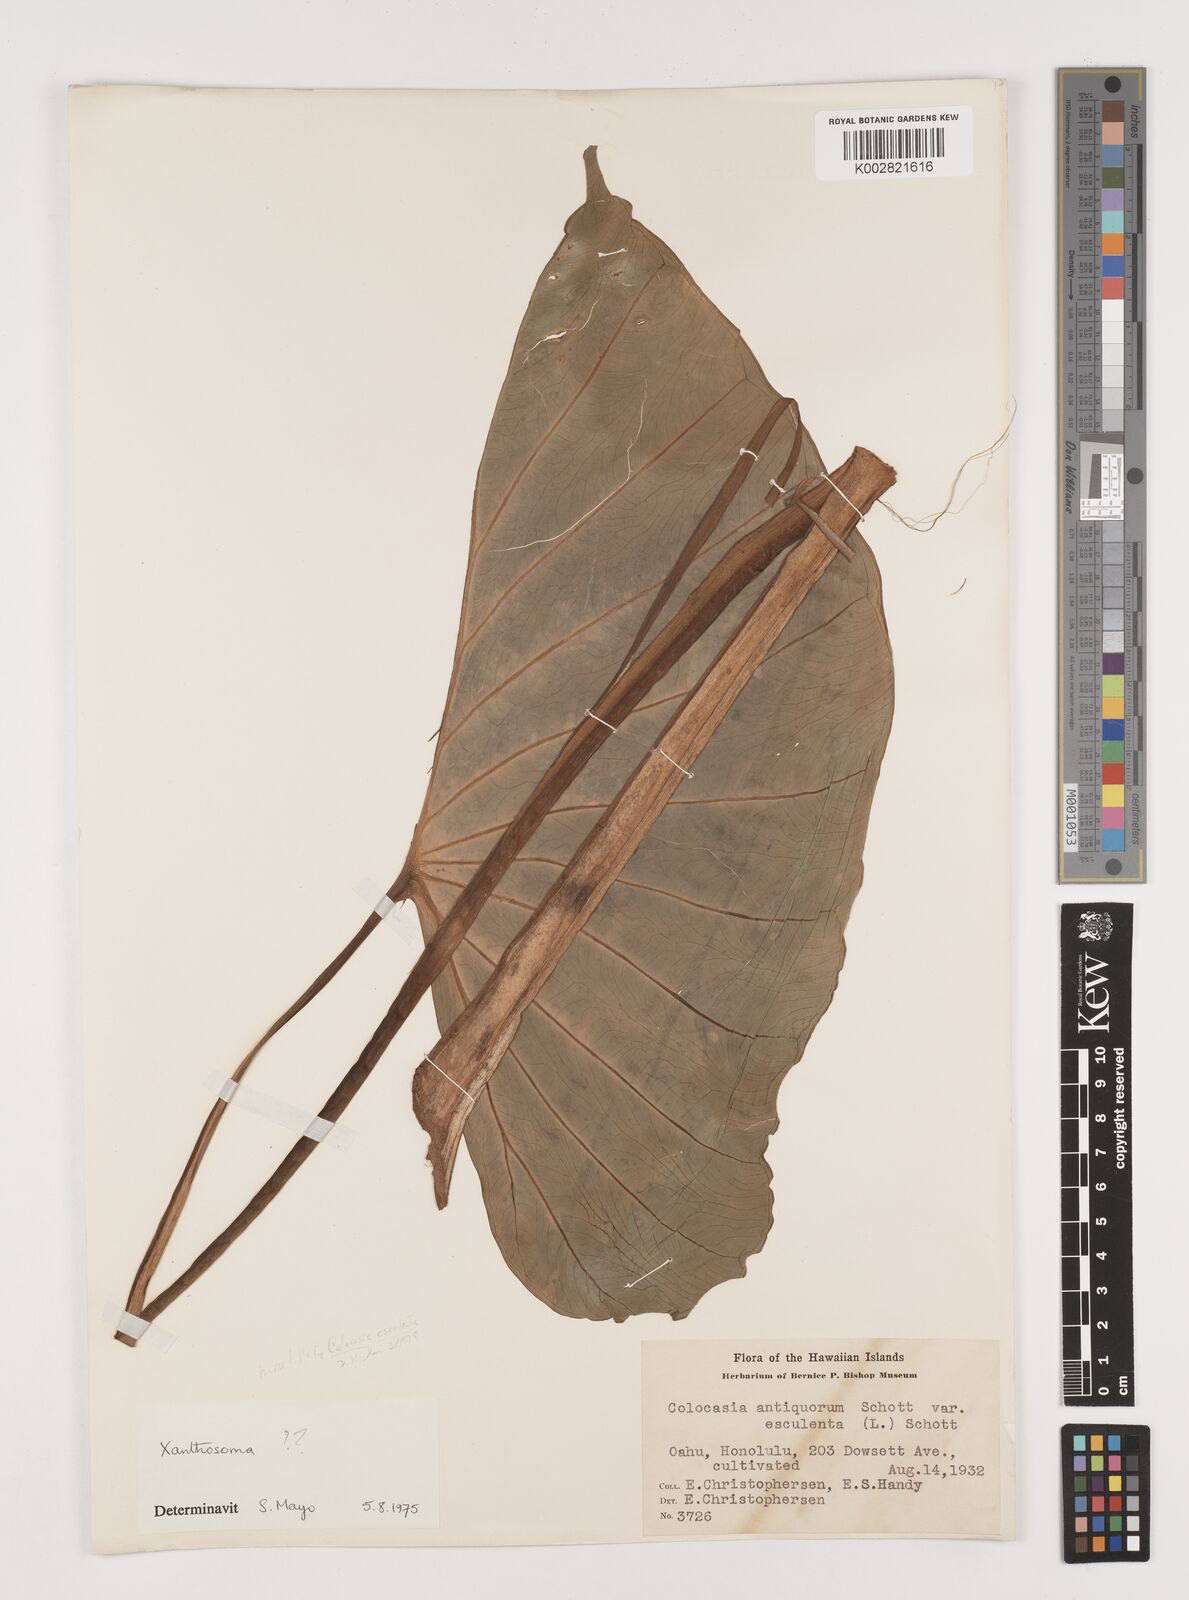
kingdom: Plantae
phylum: Tracheophyta
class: Liliopsida
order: Alismatales
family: Araceae
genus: Xanthosoma
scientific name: Xanthosoma sagittifolium
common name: Arrowleaf elephant's ear
